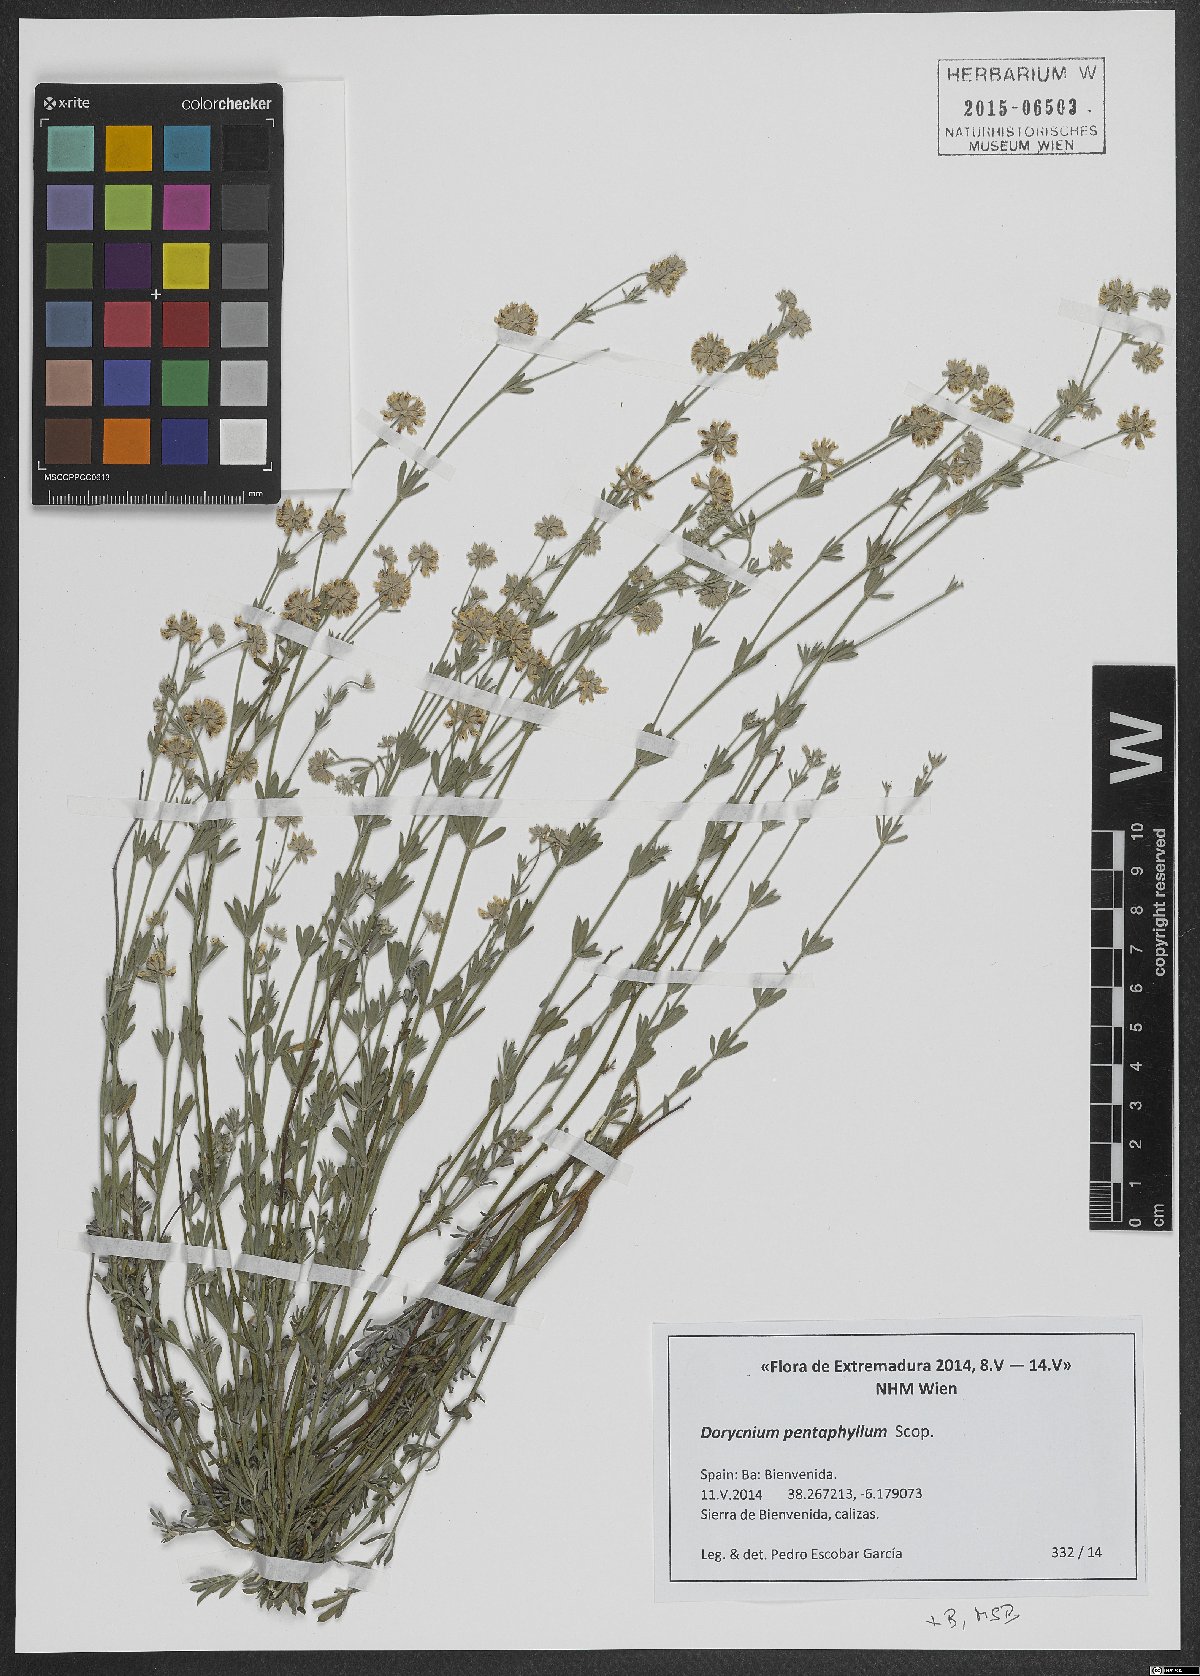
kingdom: Plantae
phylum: Tracheophyta
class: Magnoliopsida
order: Fabales
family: Fabaceae
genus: Lotus
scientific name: Lotus dorycnium
